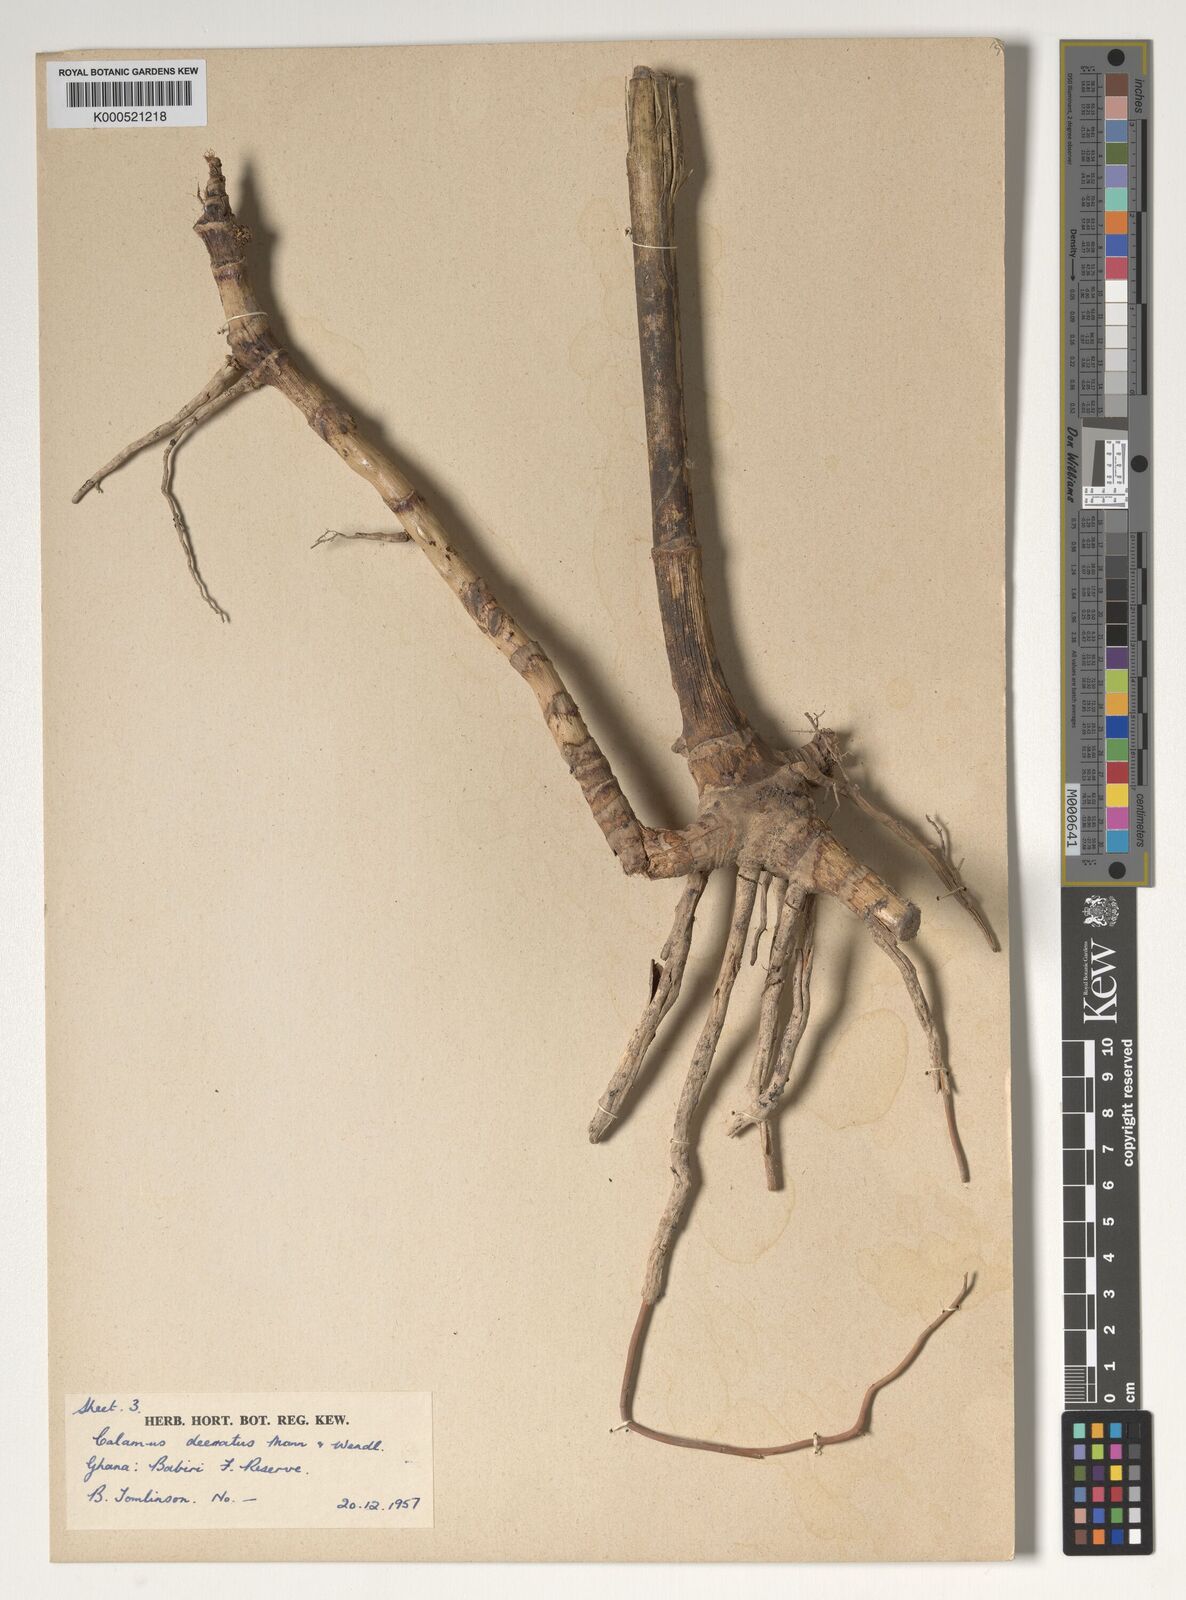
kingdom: Plantae
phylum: Tracheophyta
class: Liliopsida
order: Arecales
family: Arecaceae
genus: Calamus
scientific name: Calamus deerratus
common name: Rattan
